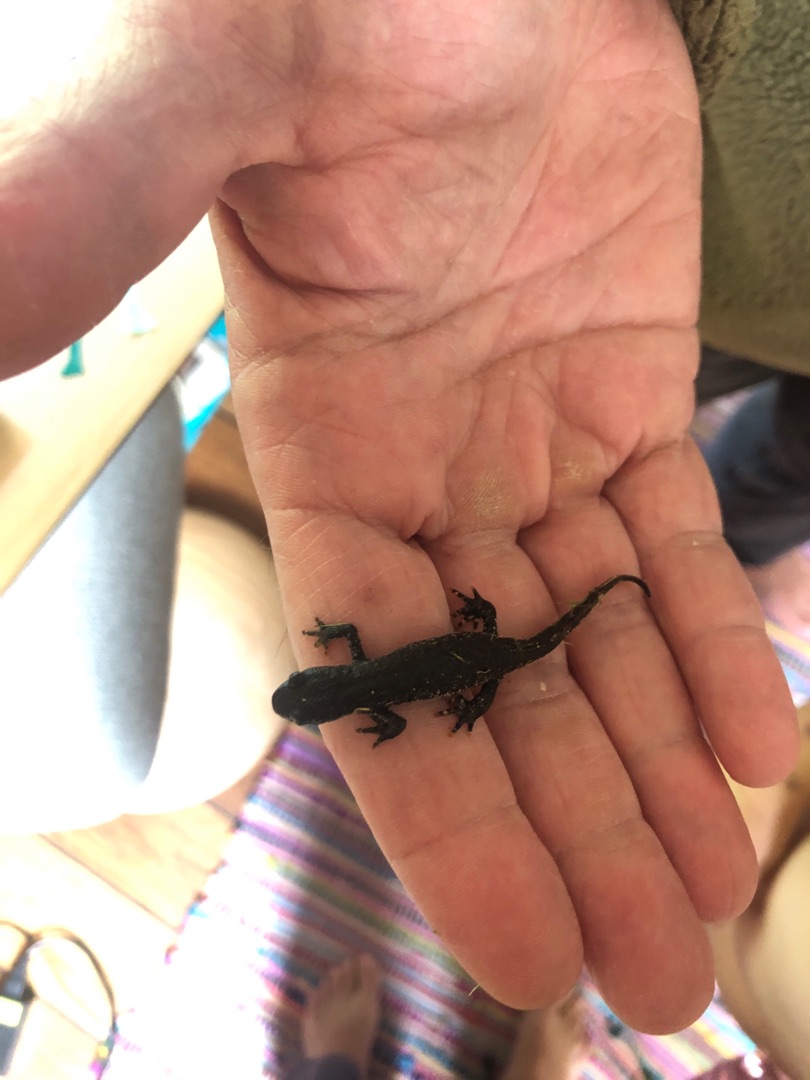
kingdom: Animalia
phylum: Chordata
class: Amphibia
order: Caudata
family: Salamandridae
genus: Triturus
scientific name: Triturus cristatus
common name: Stor vandsalamander
